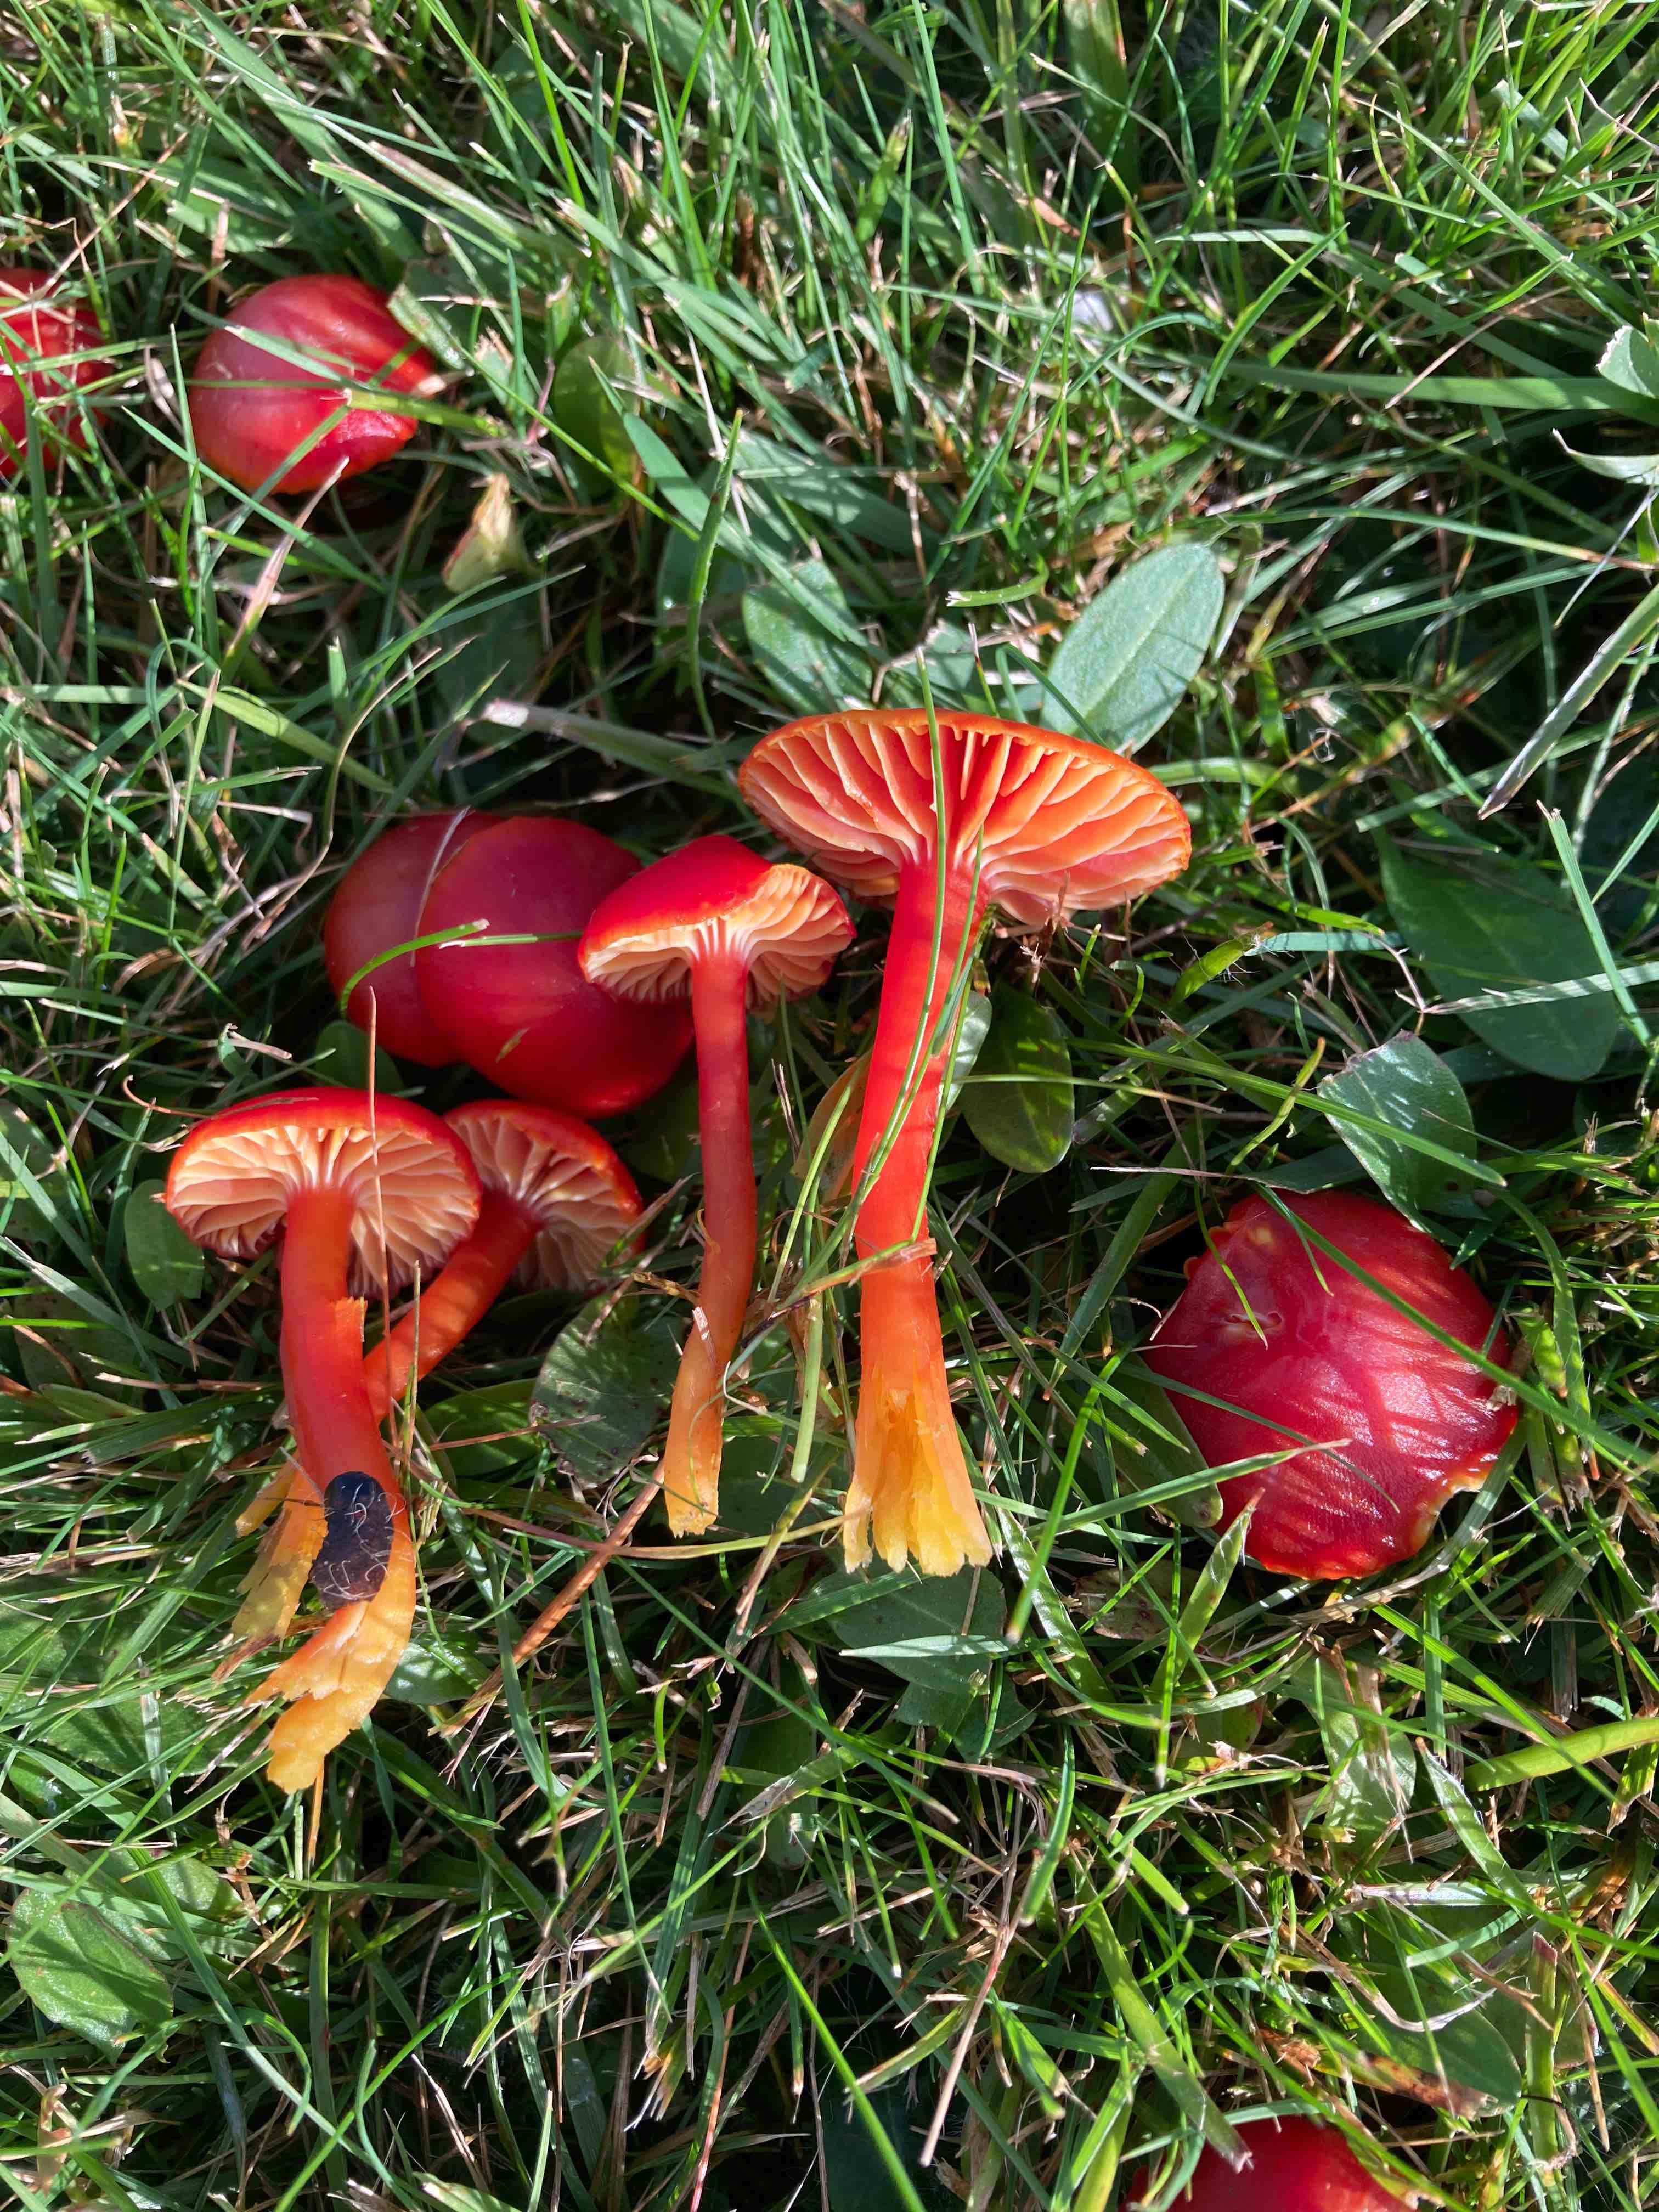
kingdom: Fungi
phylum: Basidiomycota
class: Agaricomycetes
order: Agaricales
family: Hygrophoraceae
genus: Hygrocybe
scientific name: Hygrocybe coccinea
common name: cinnober-vokshat
